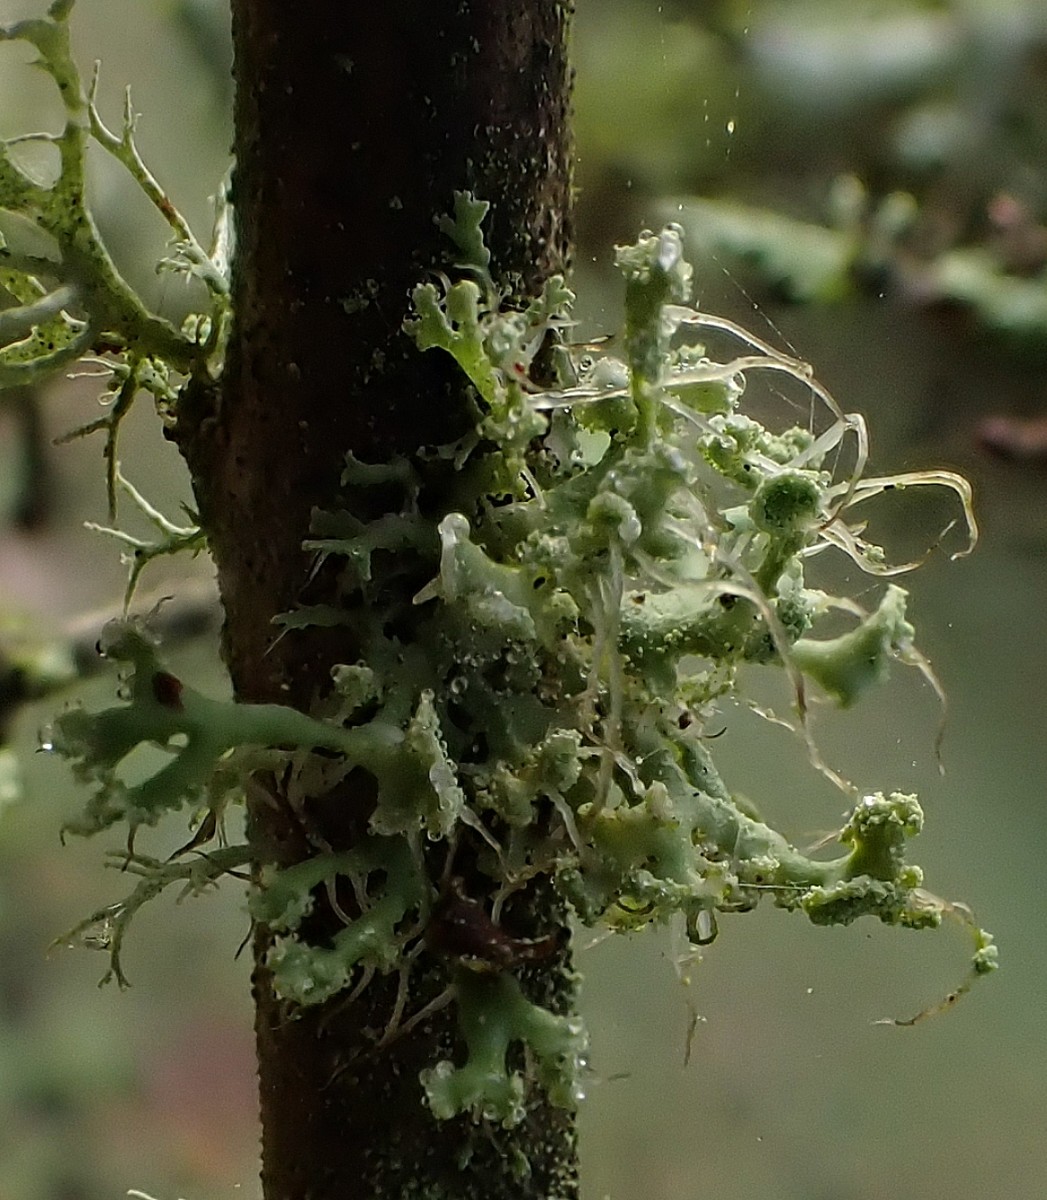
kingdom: Fungi
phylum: Ascomycota
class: Lecanoromycetes
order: Caliciales
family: Physciaceae
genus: Physcia
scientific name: Physcia tenella
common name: spæd rosetlav
